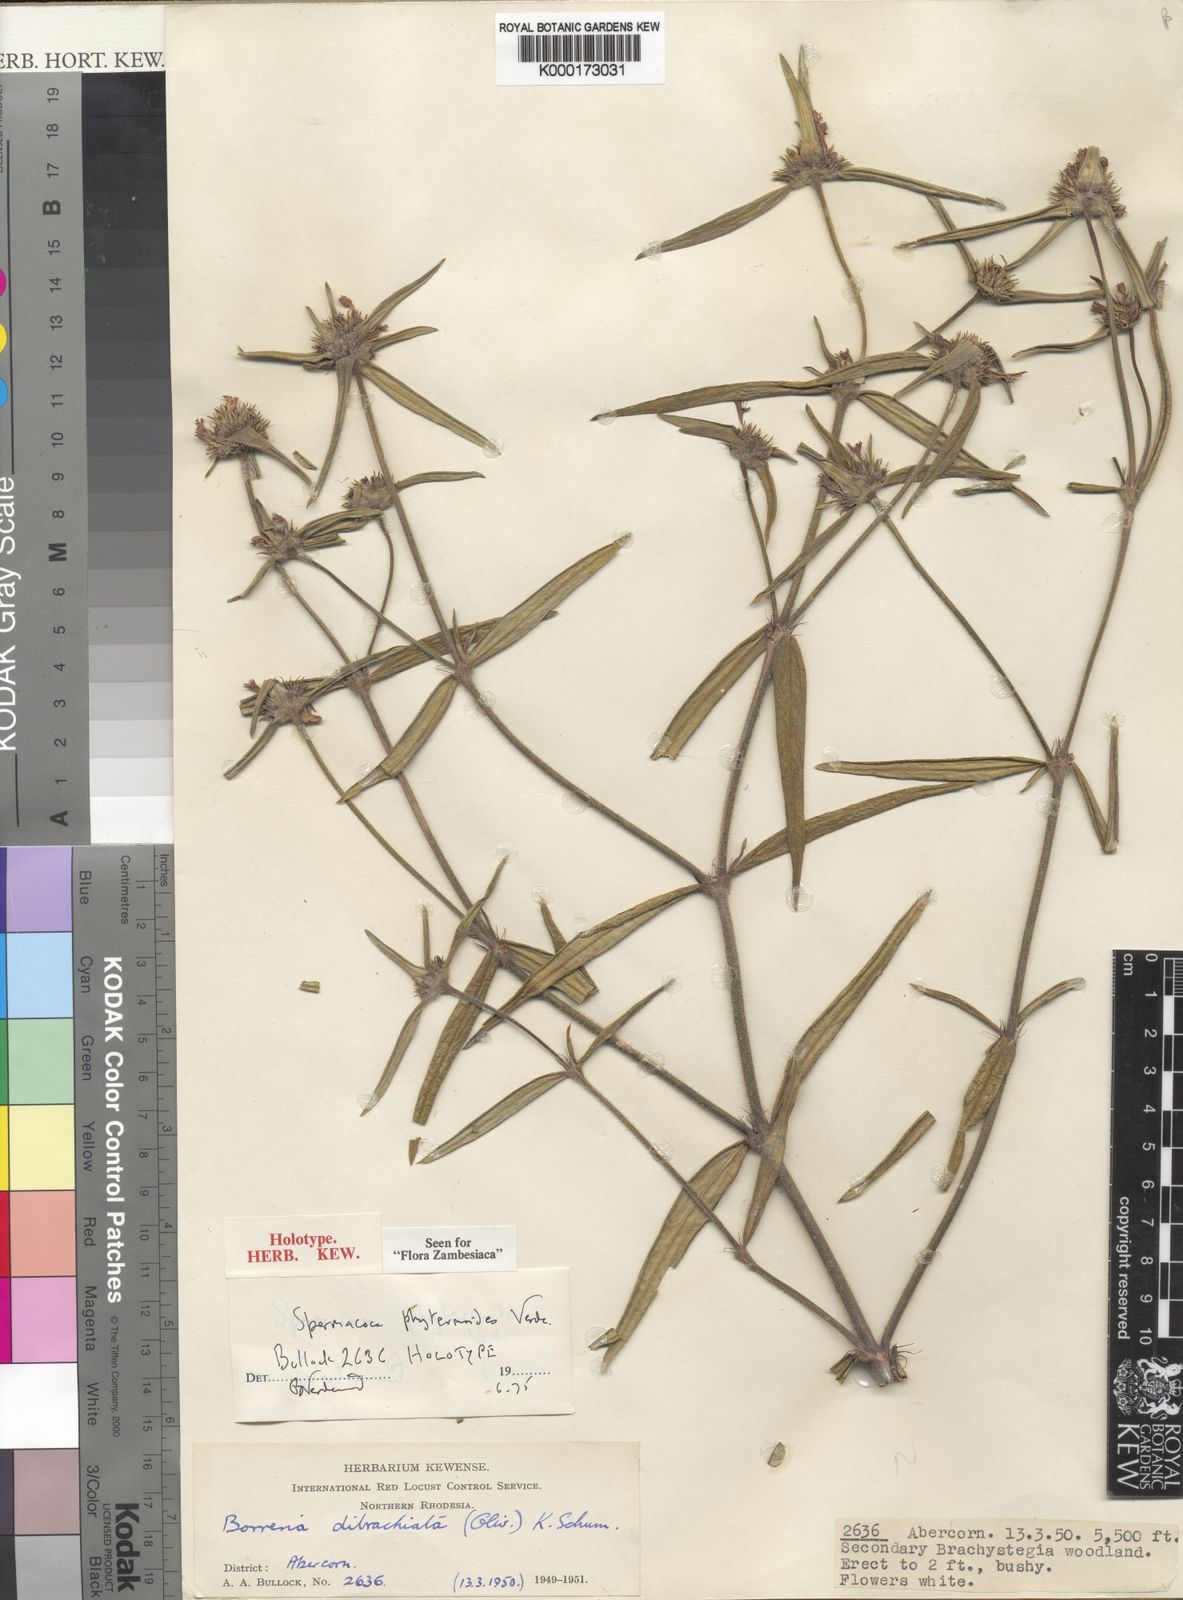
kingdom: Plantae
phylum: Tracheophyta
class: Magnoliopsida
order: Gentianales
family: Rubiaceae
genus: Spermacoce
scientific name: Spermacoce phyteumoides
